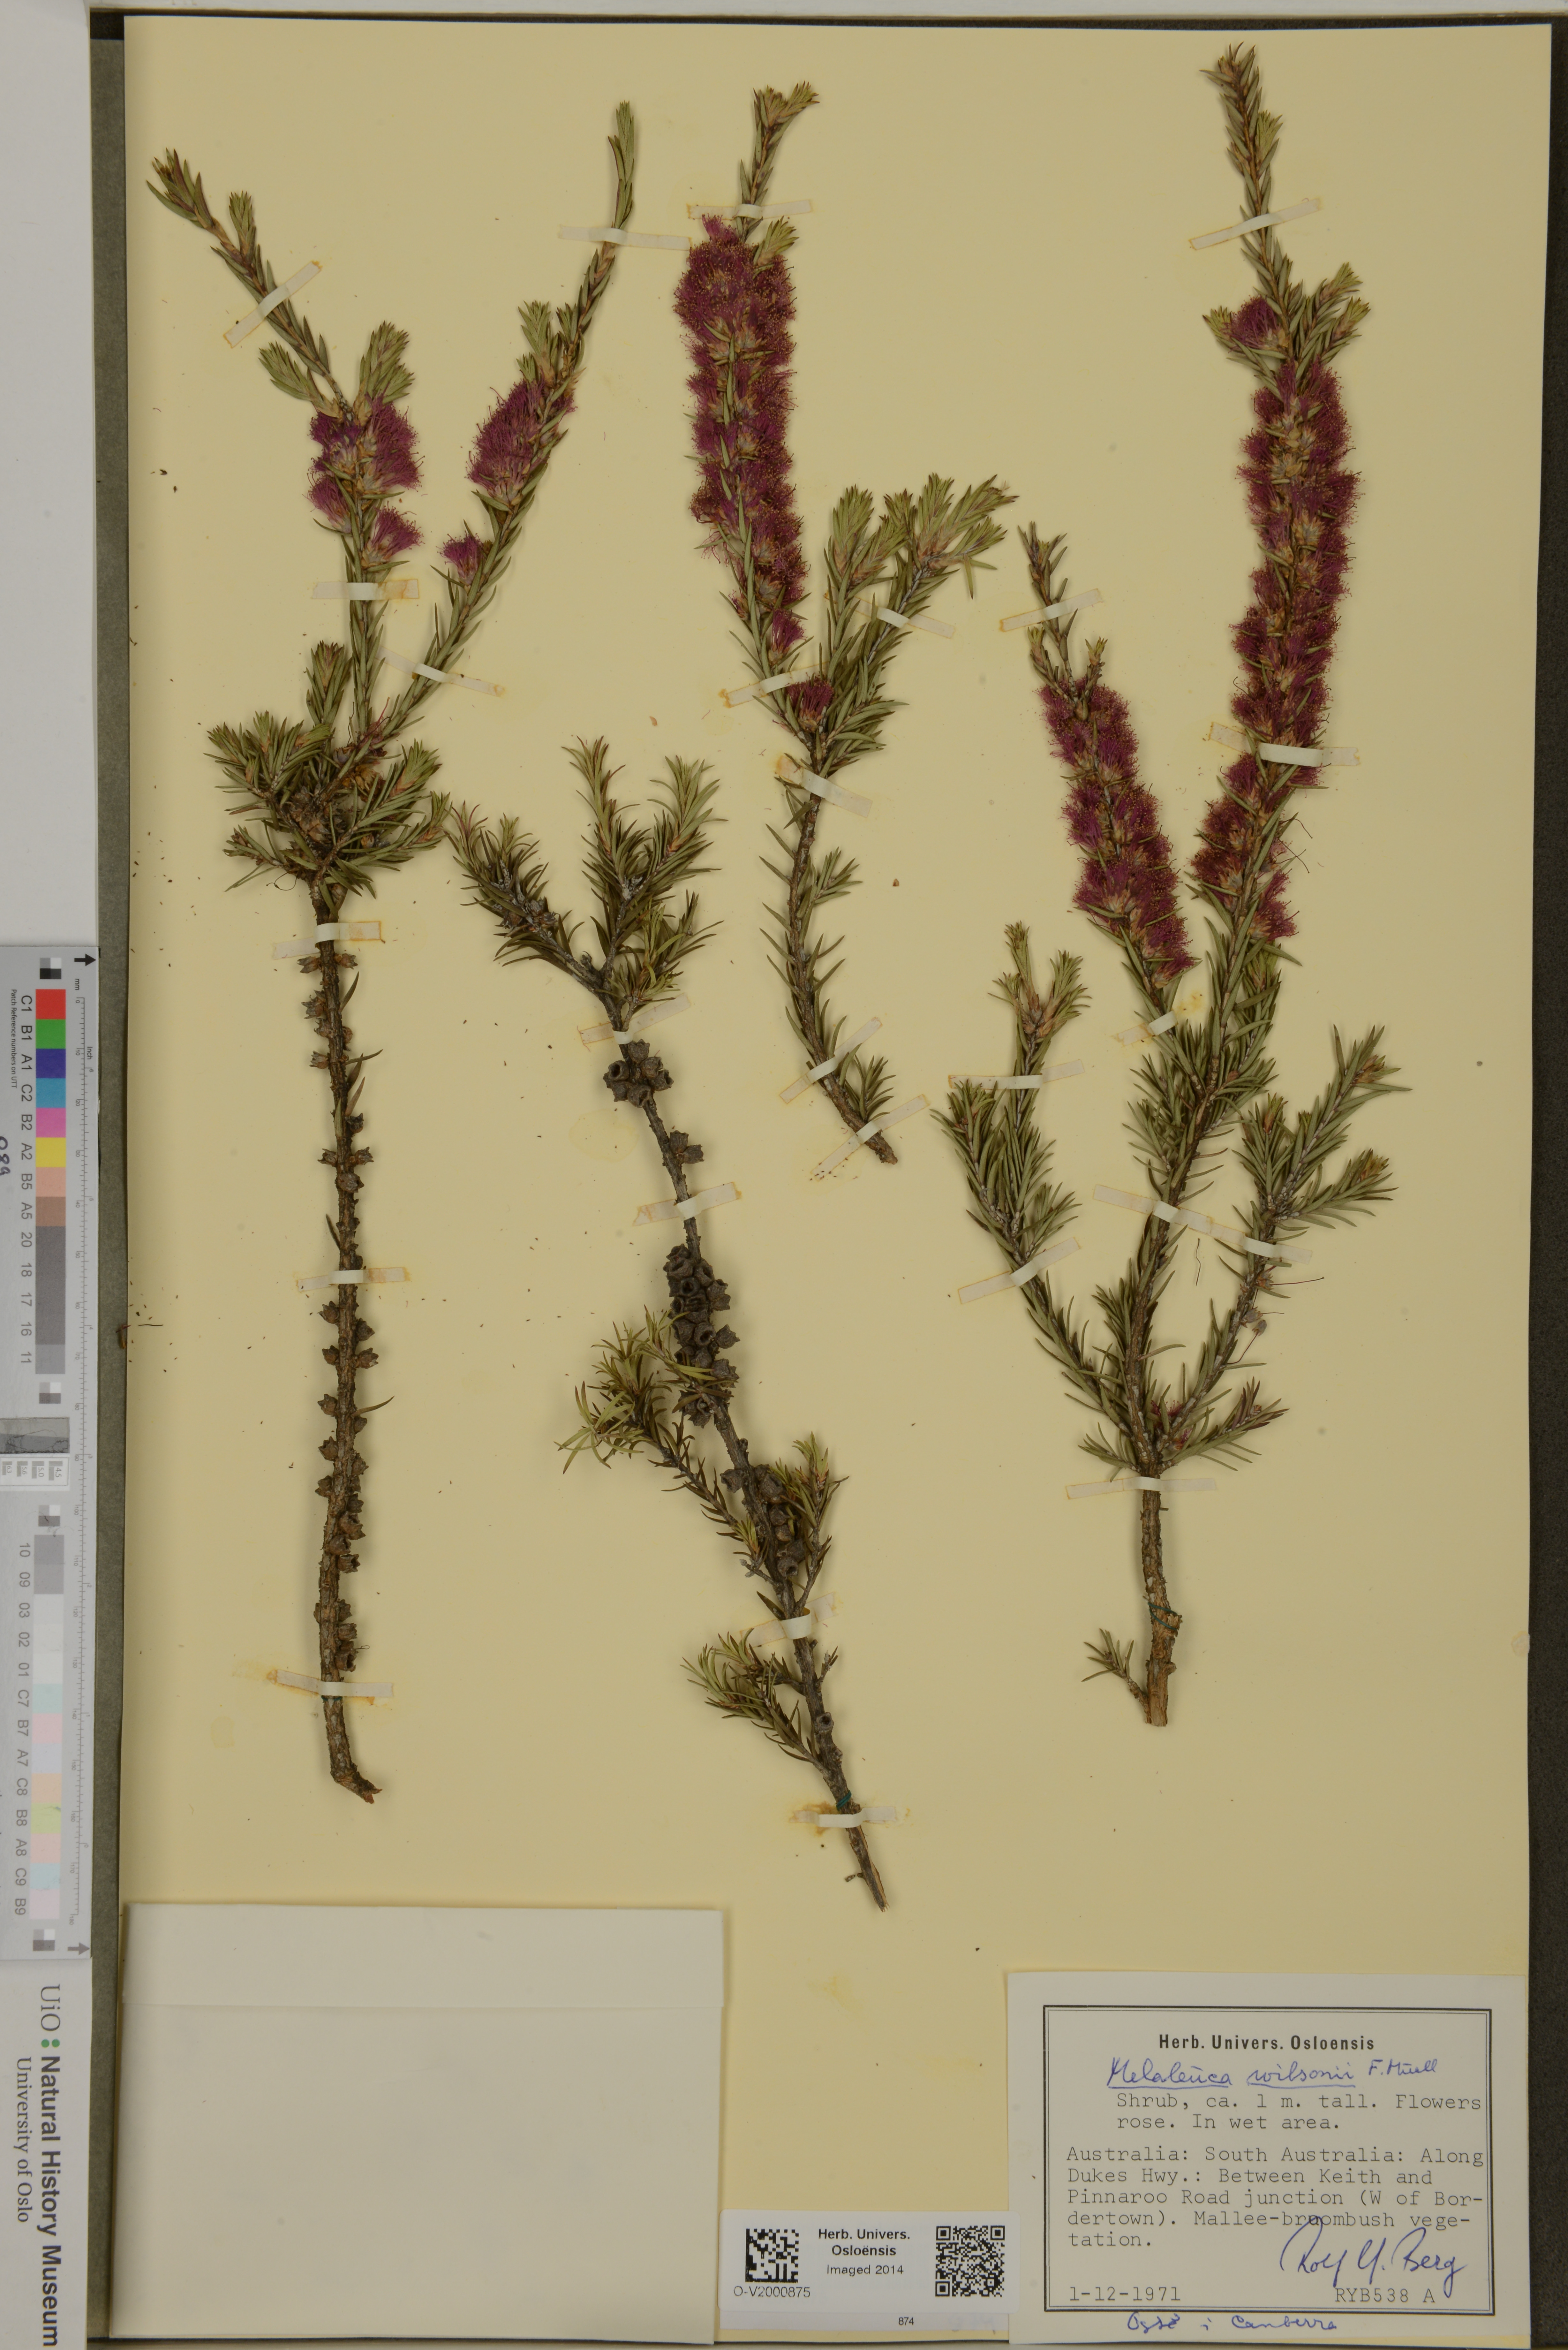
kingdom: Plantae
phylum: Tracheophyta
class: Magnoliopsida
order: Myrtales
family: Myrtaceae
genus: Melaleuca
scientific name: Melaleuca wilsonii
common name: Violet honey myrtle
